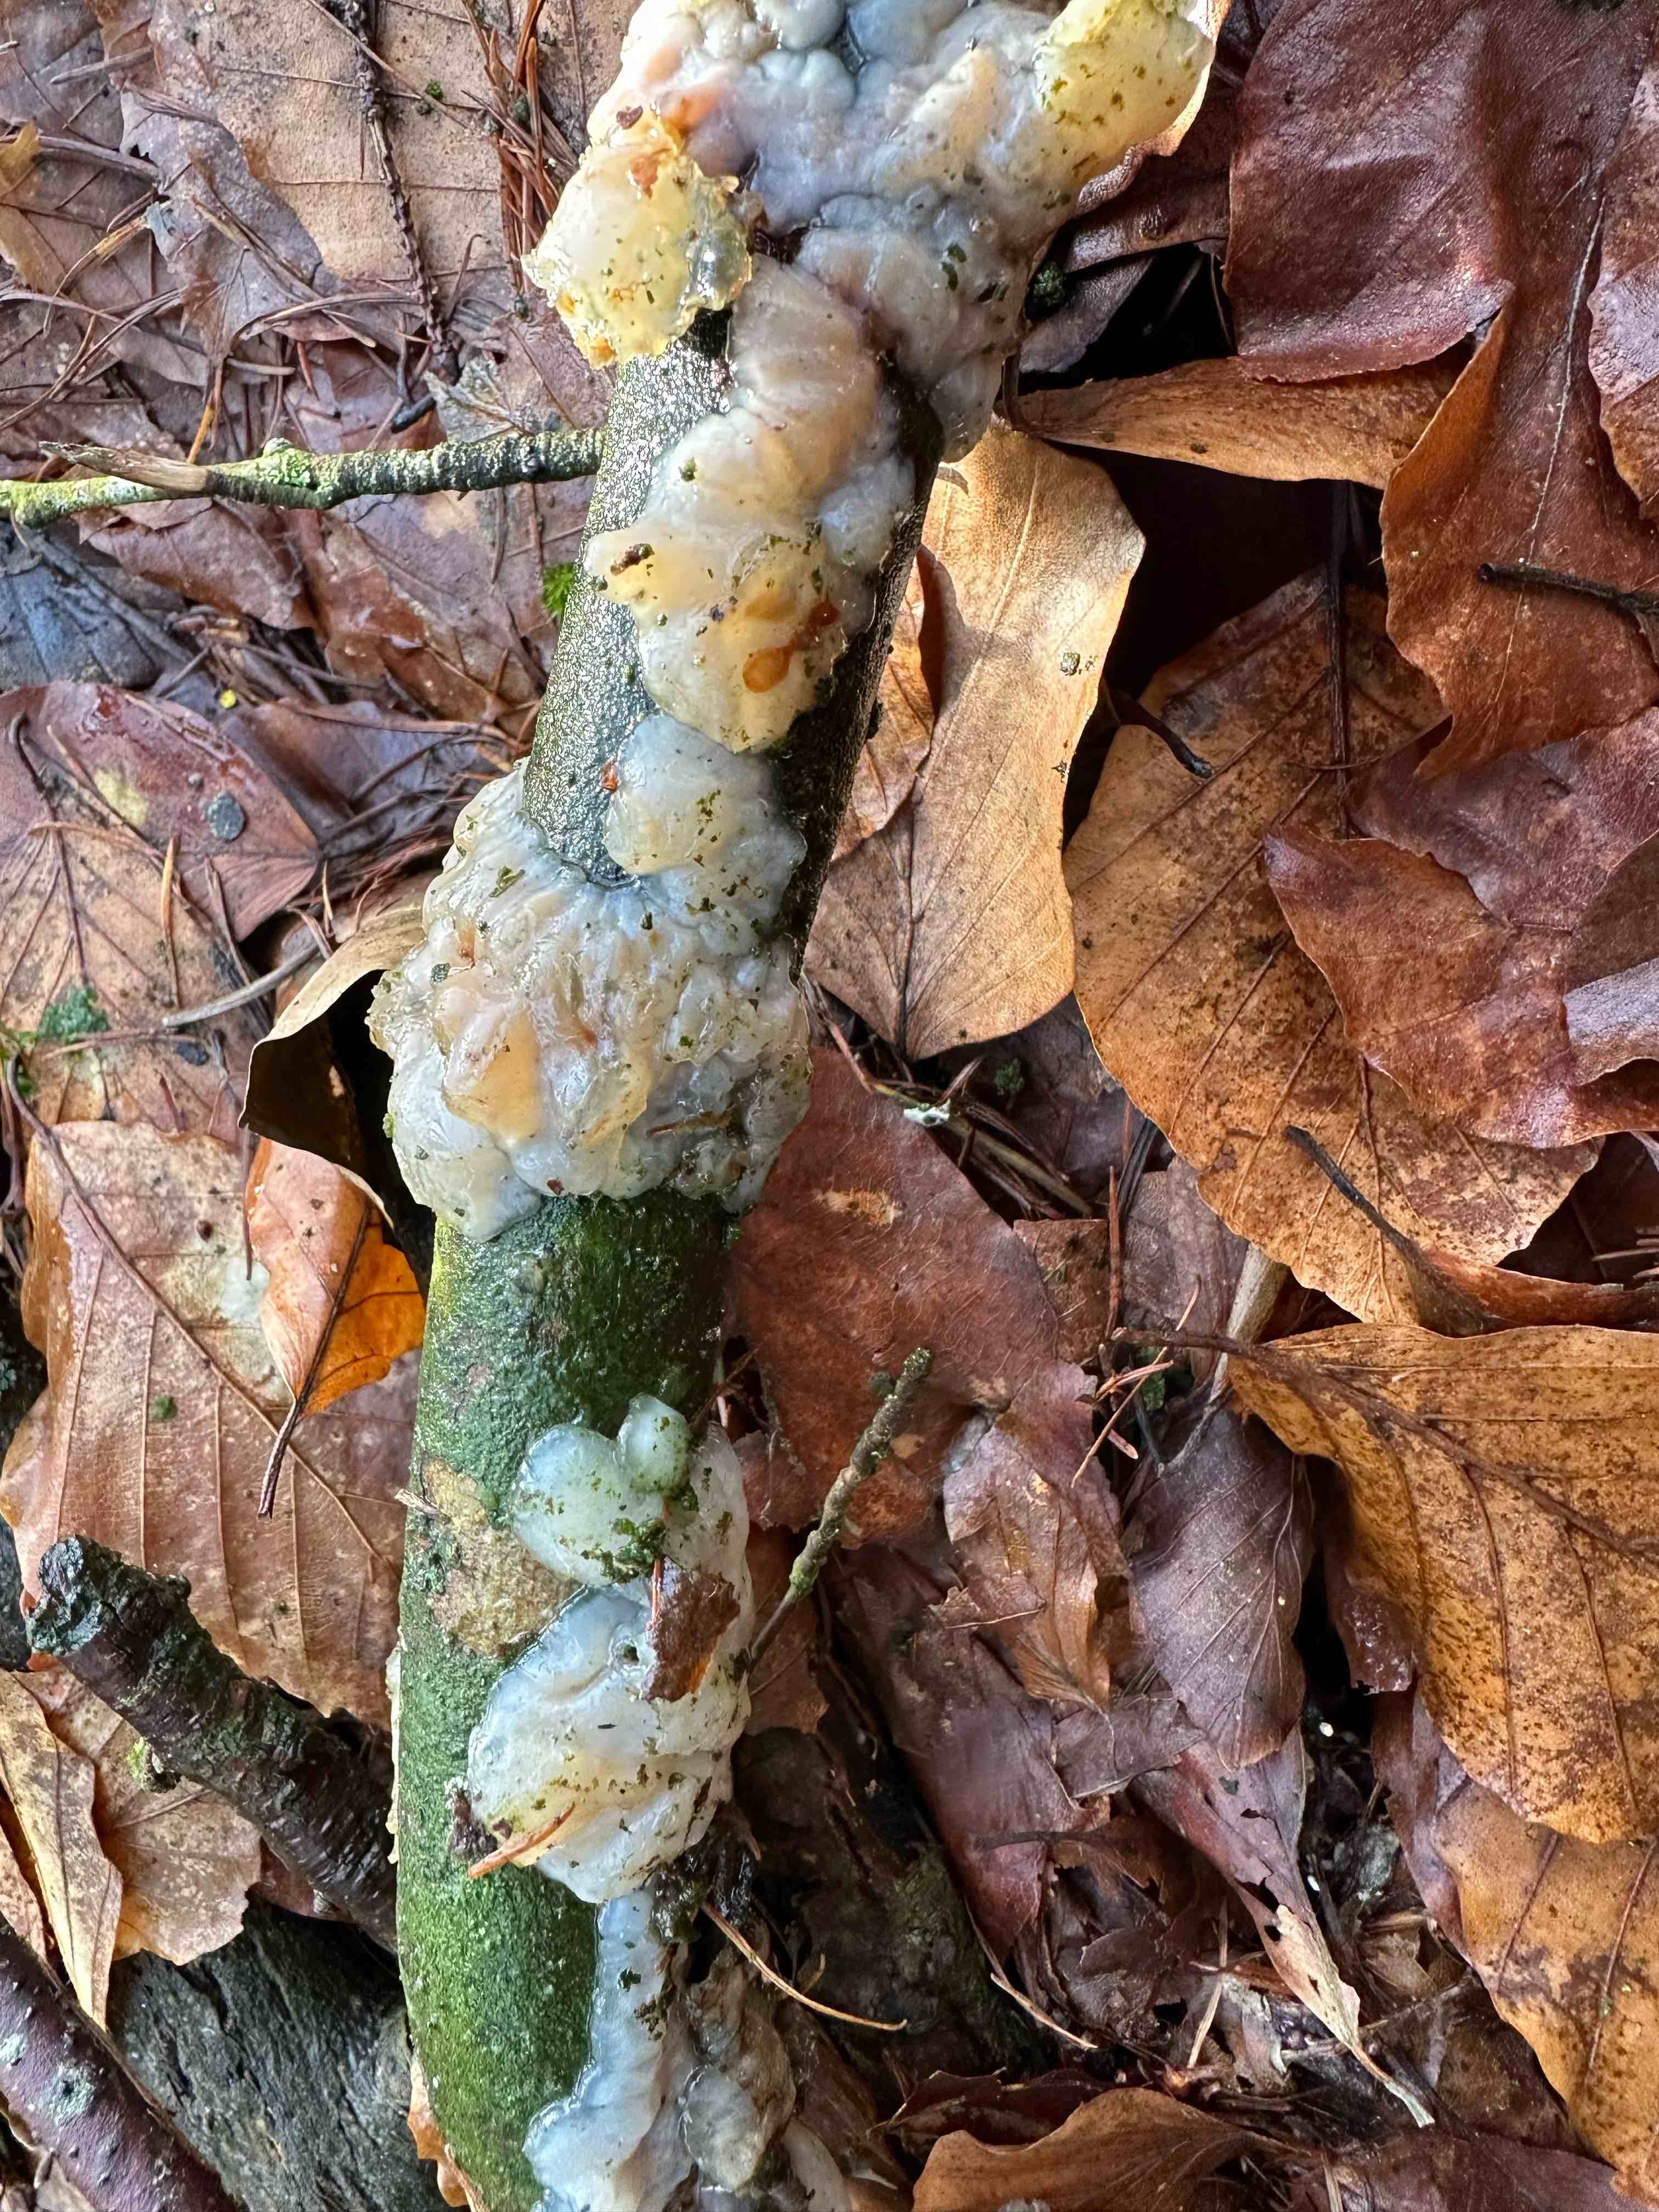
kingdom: Fungi
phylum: Basidiomycota
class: Agaricomycetes
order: Auriculariales
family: Auriculariaceae
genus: Exidia
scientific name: Exidia thuretiana
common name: hvidlig bævretop
